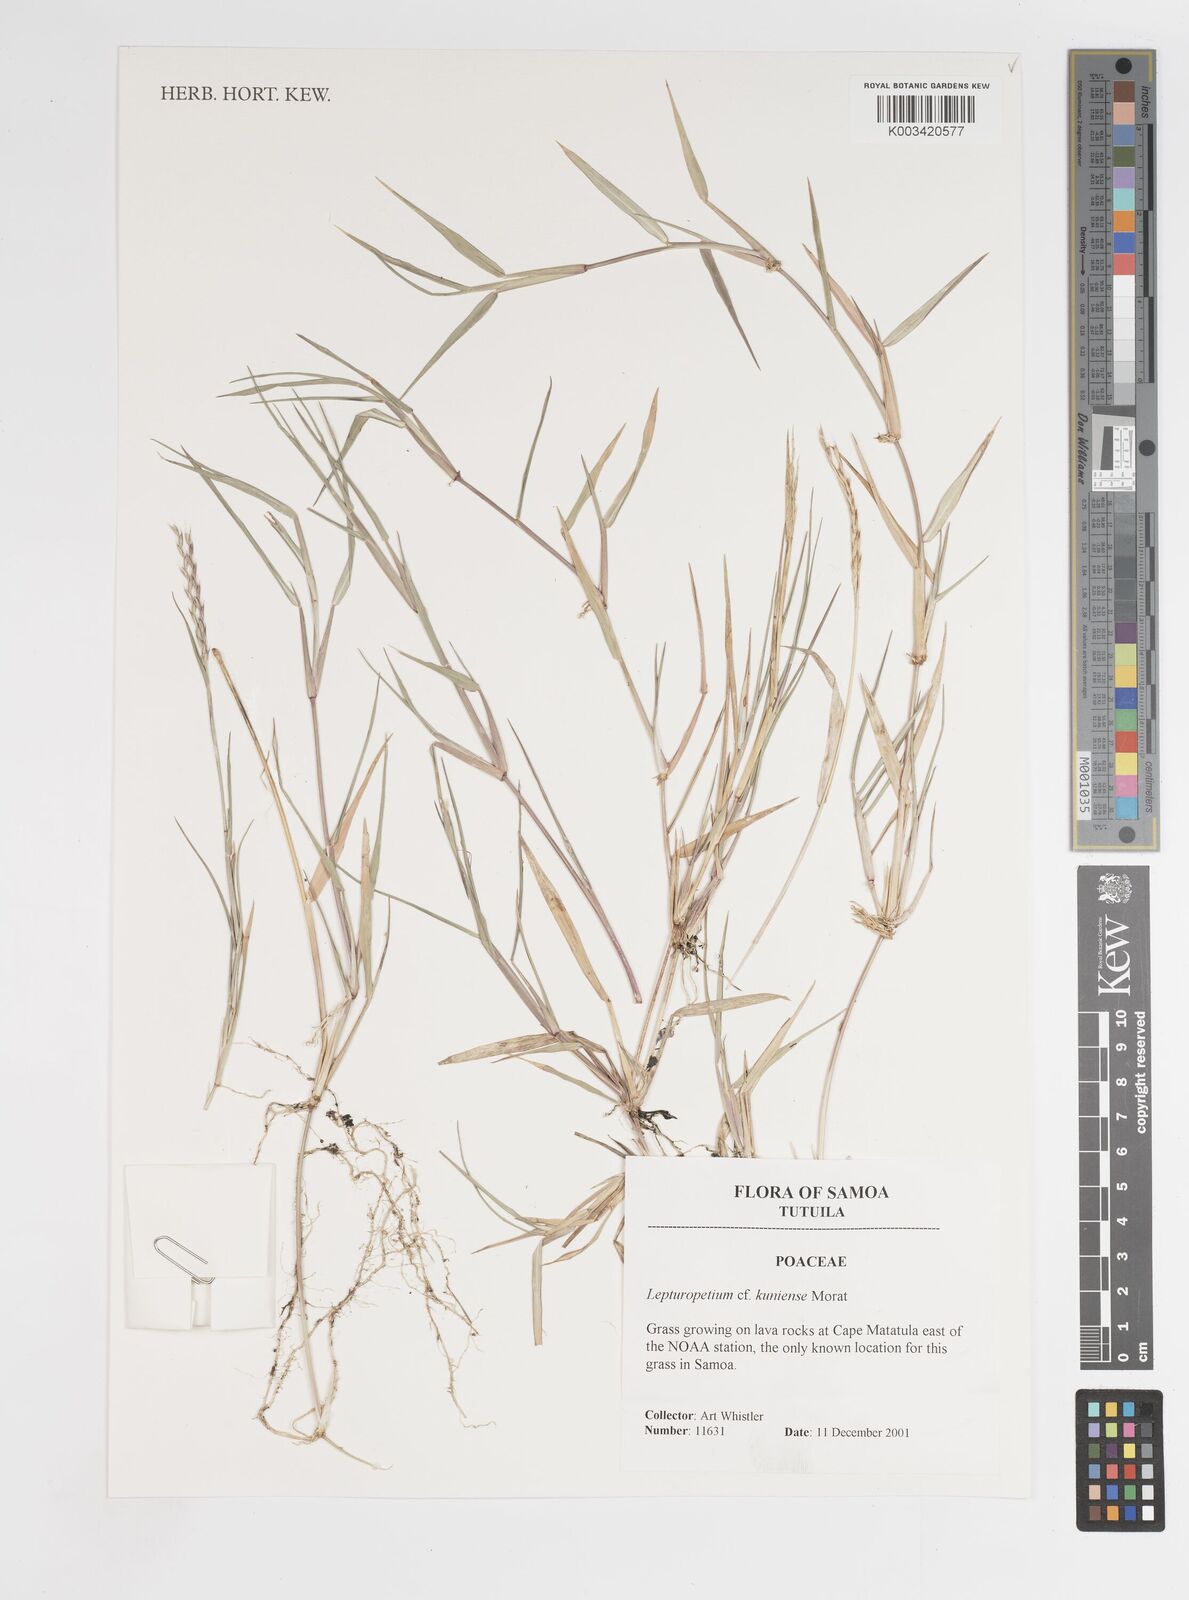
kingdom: Plantae
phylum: Tracheophyta
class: Liliopsida
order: Poales
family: Poaceae
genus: Lepturopetium
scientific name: Lepturopetium kuniense
